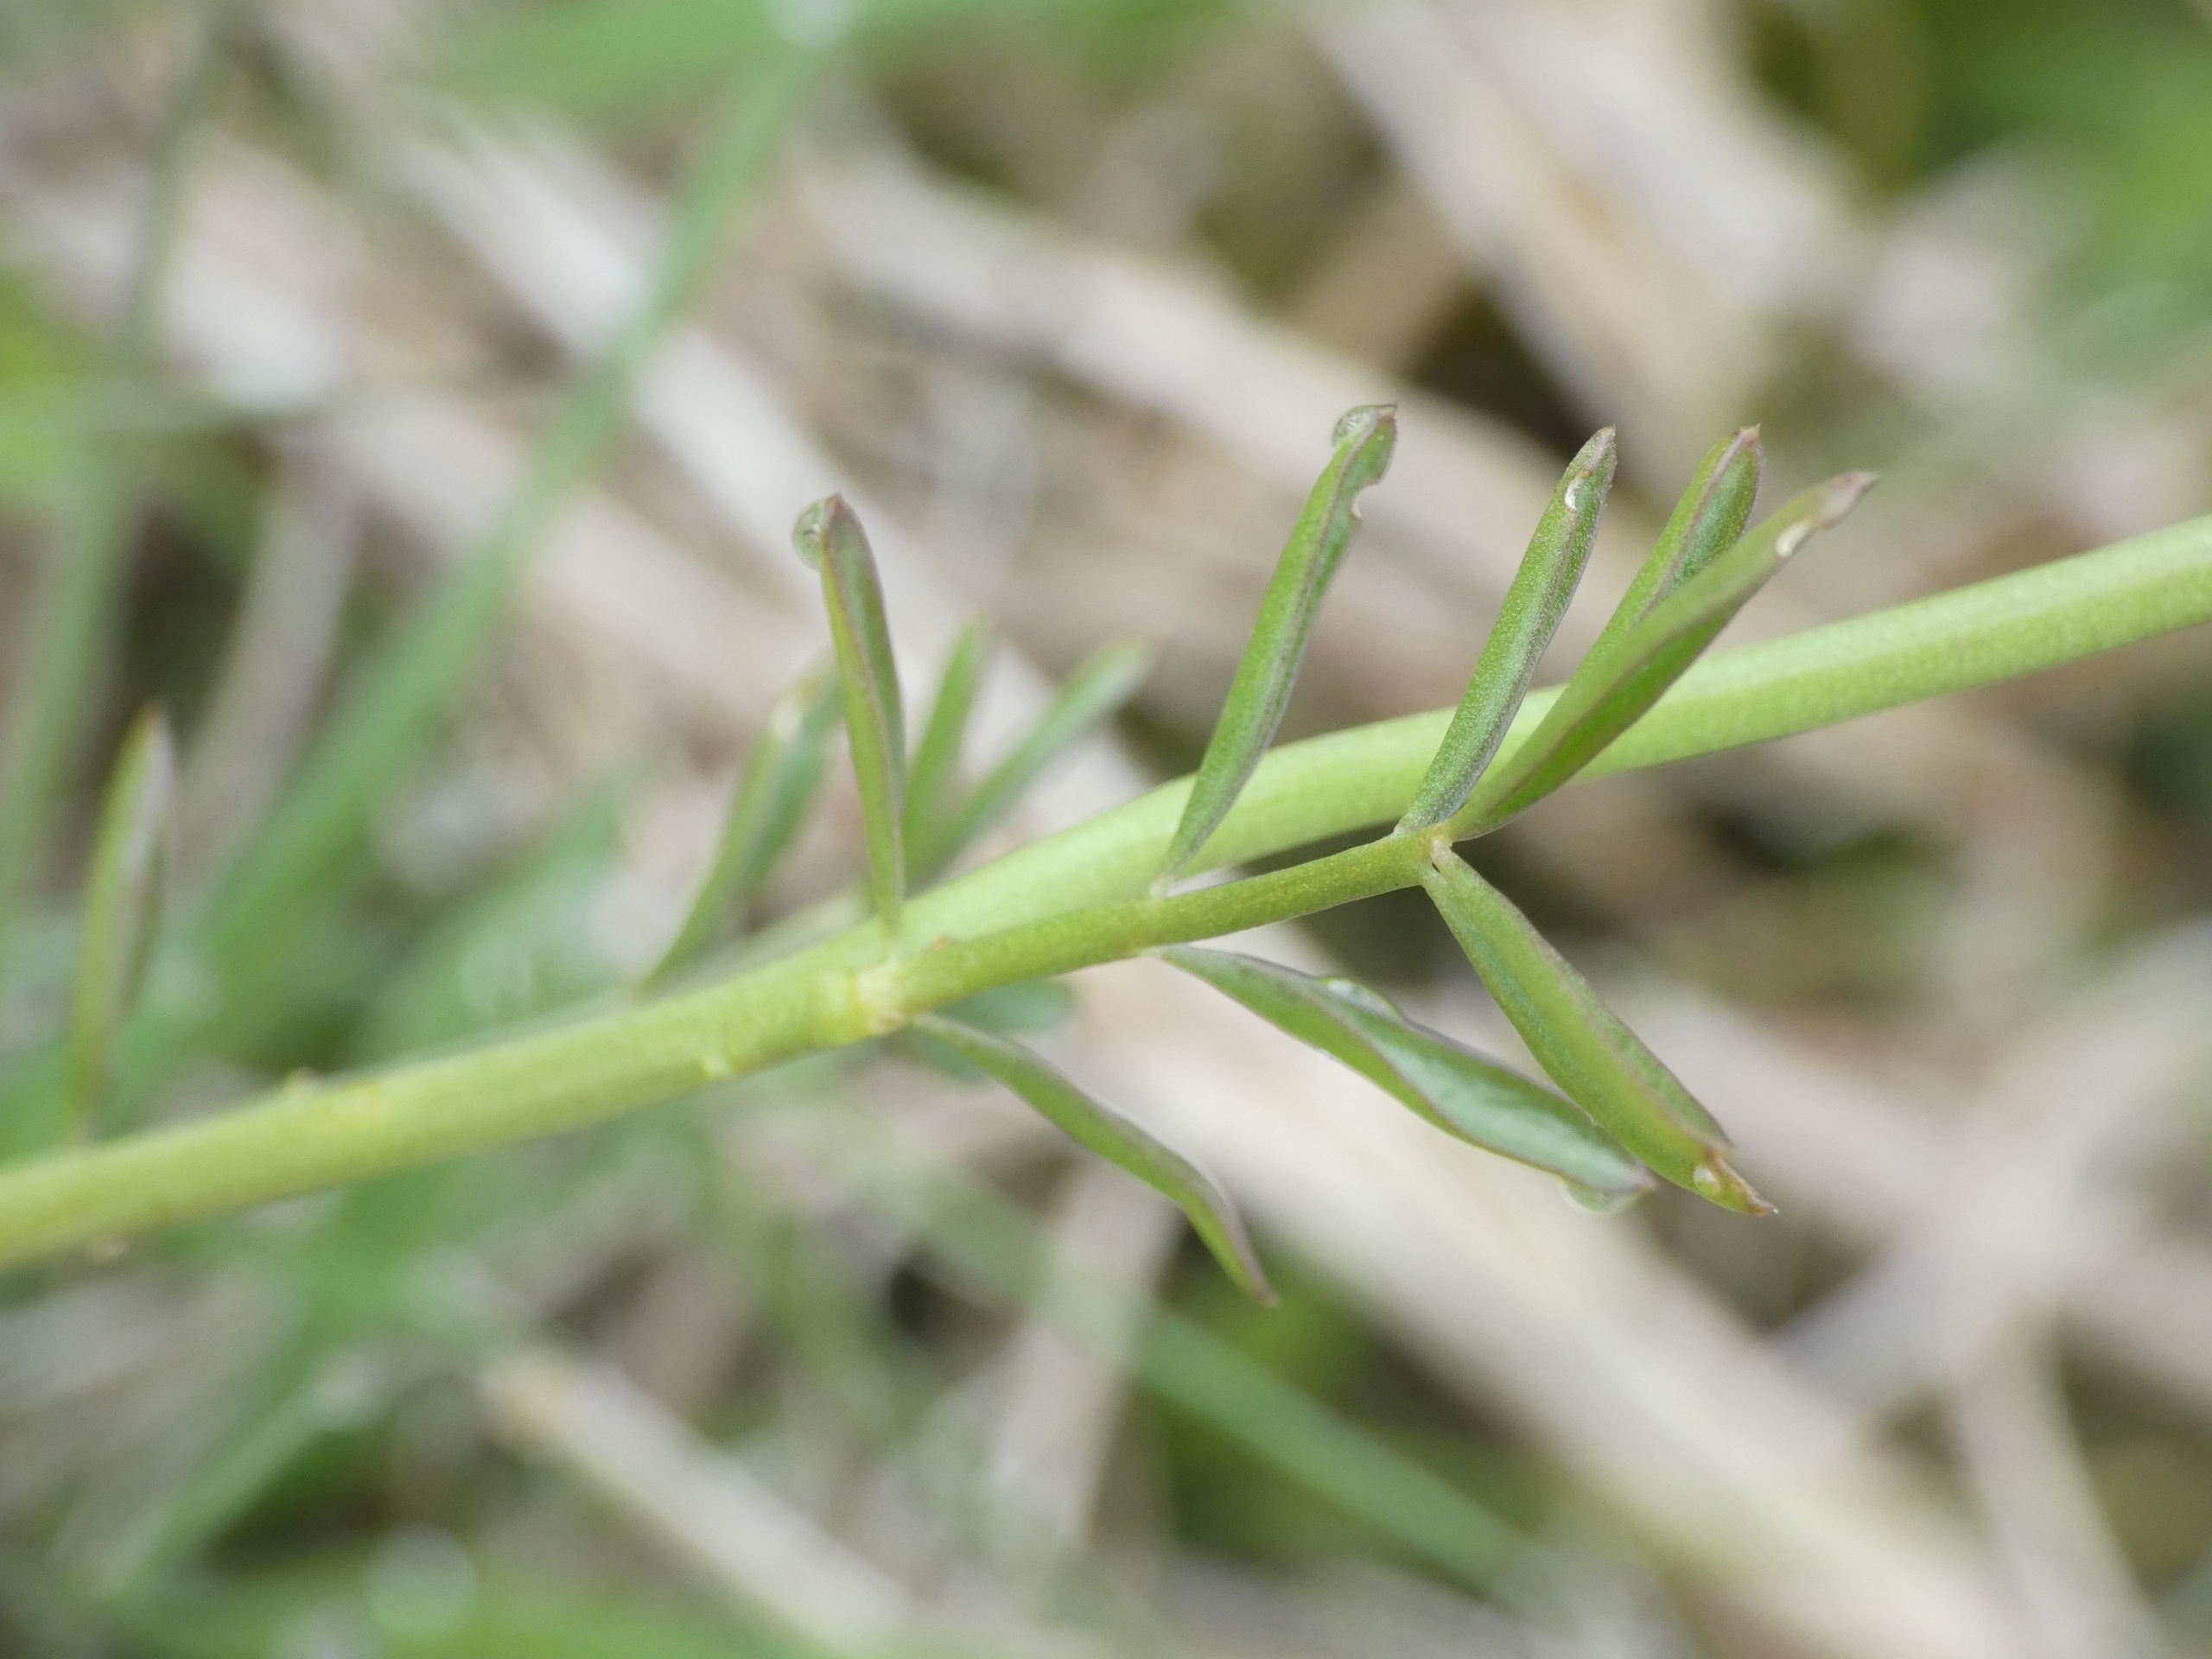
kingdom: Plantae
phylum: Tracheophyta
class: Magnoliopsida
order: Brassicales
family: Brassicaceae
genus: Cardamine
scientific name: Cardamine pratensis
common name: Engkarse
